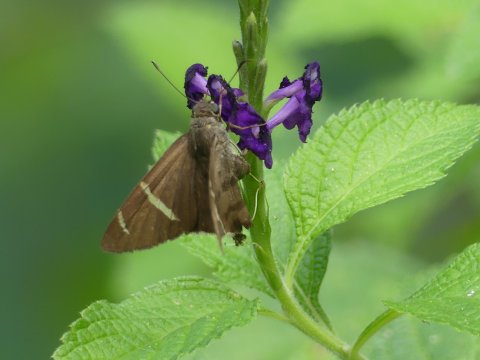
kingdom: Animalia
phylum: Arthropoda
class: Insecta
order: Lepidoptera
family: Hesperiidae
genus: Urbanus
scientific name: Urbanus tanna
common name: Tanna Longtail
